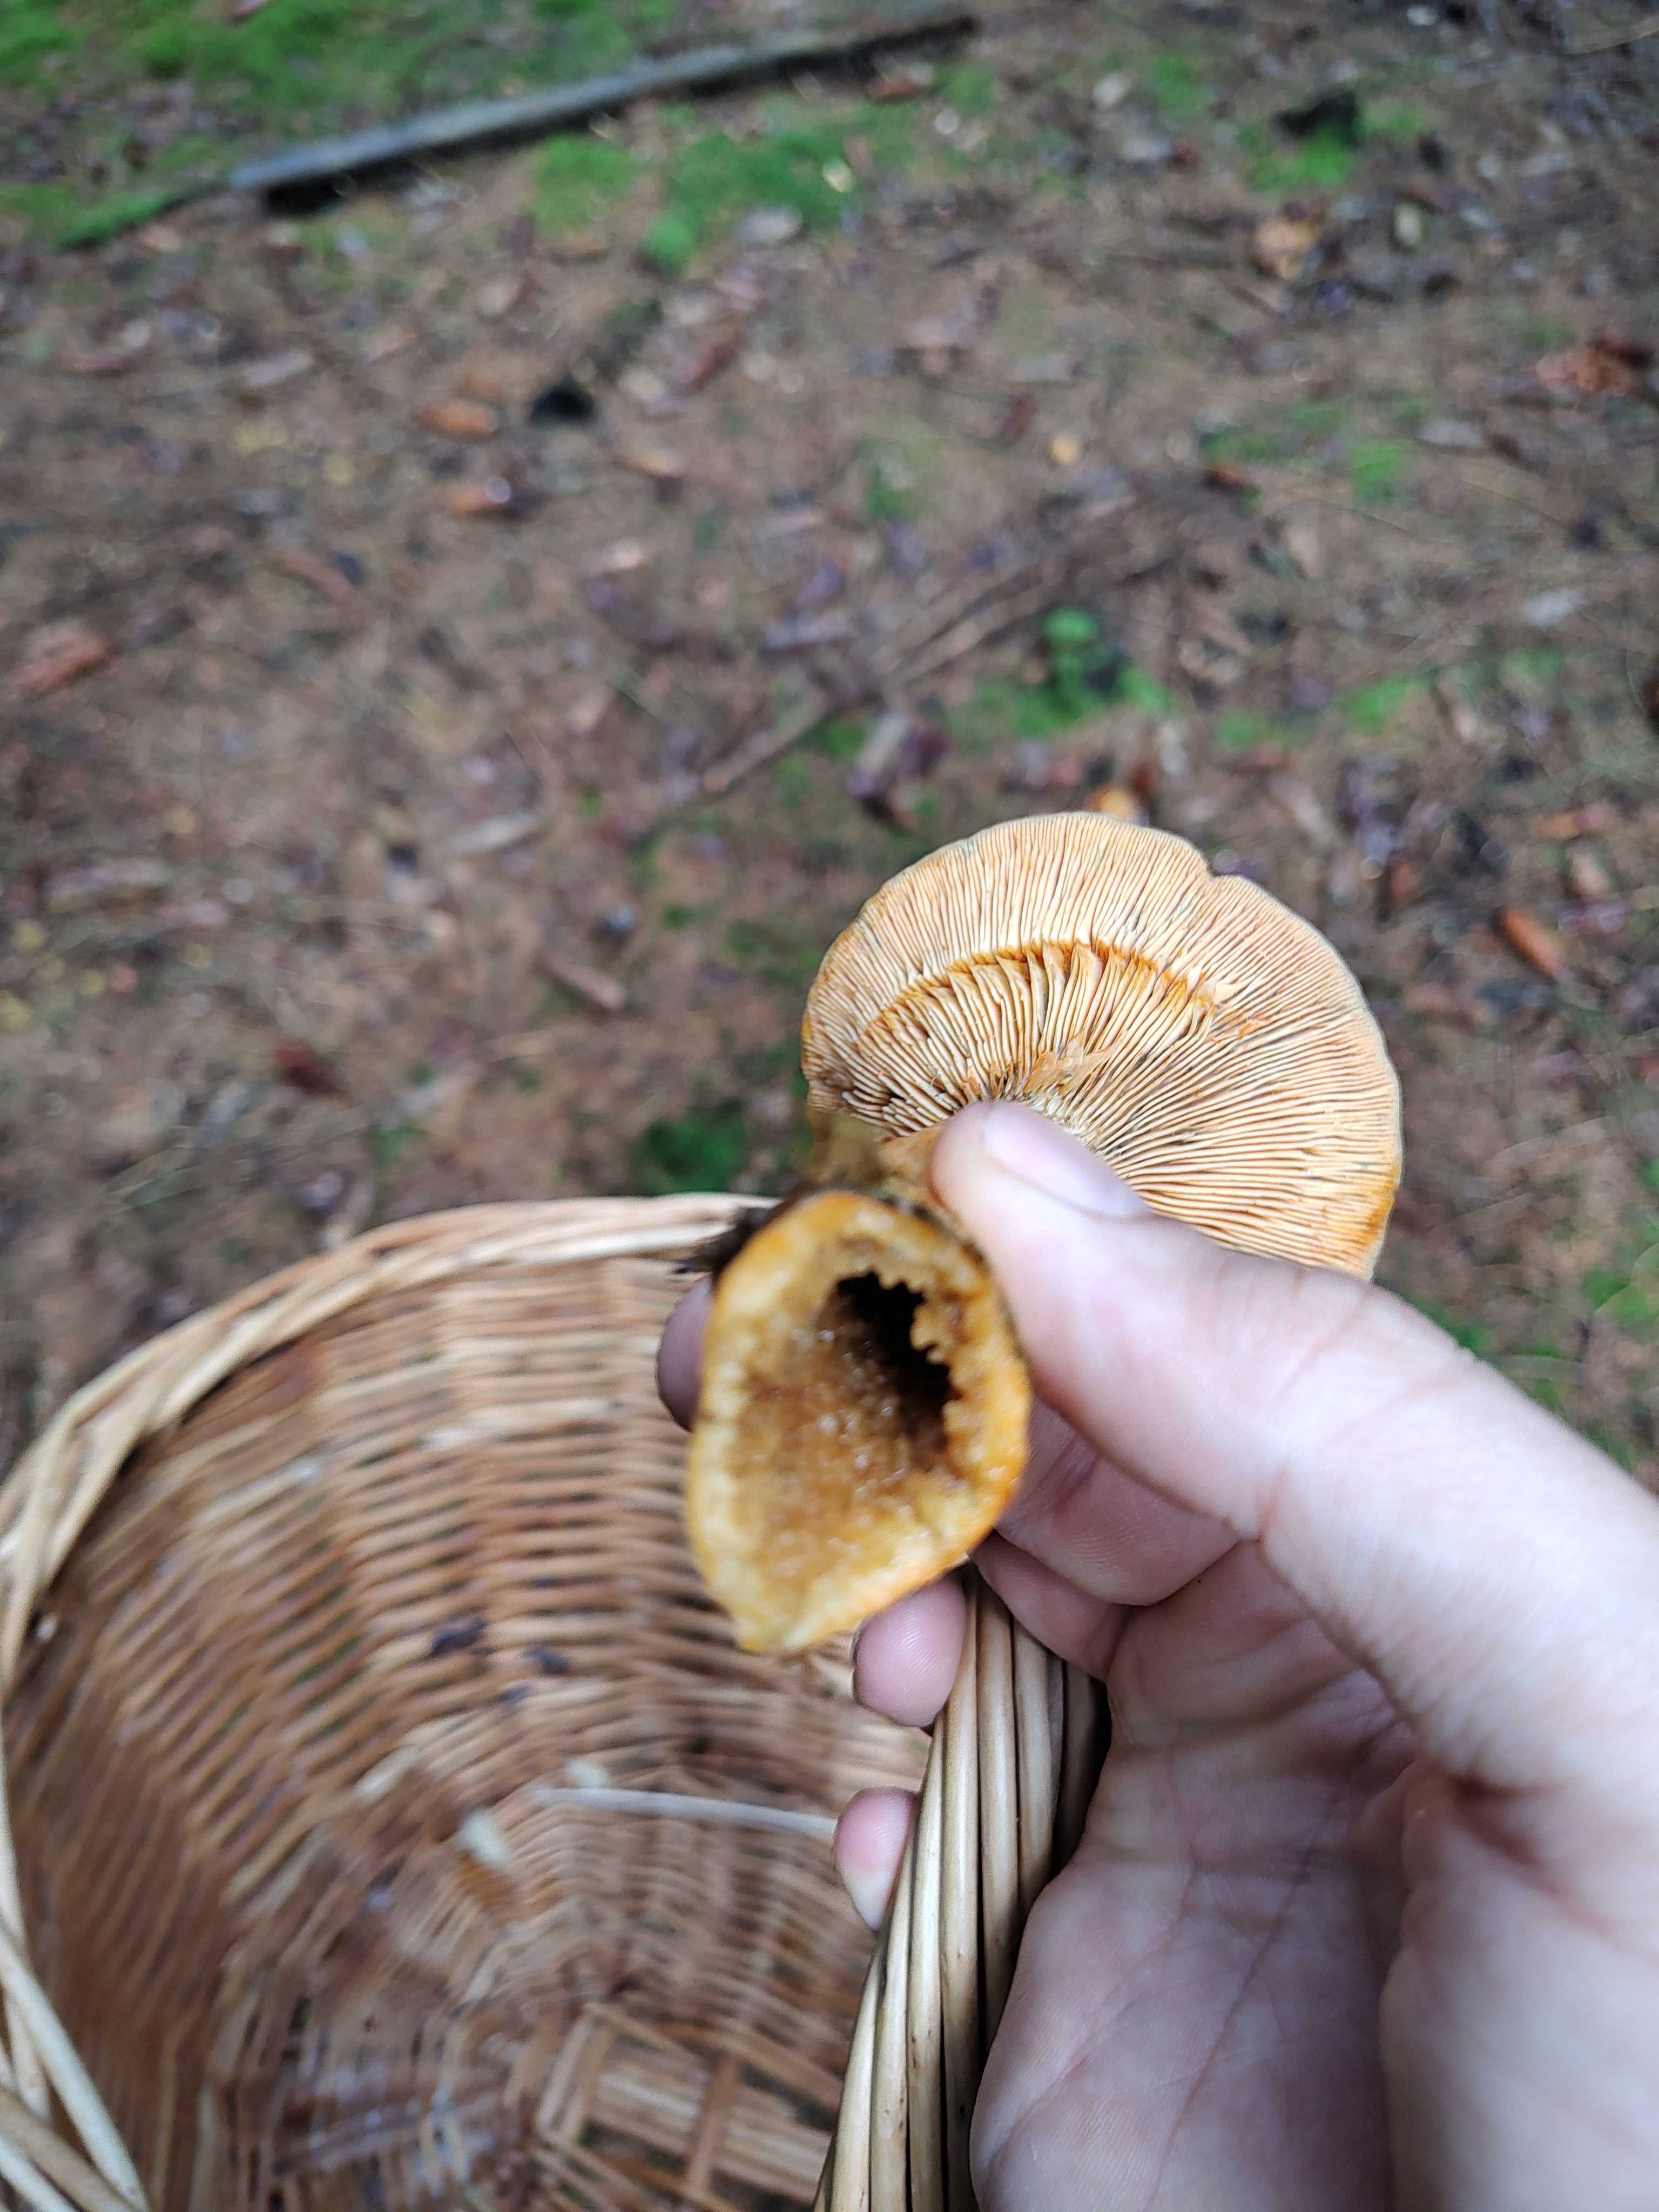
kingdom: Fungi
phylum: Basidiomycota
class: Agaricomycetes
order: Russulales
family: Russulaceae
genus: Lactarius
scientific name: Lactarius deterrimus
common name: gran-mælkehat
